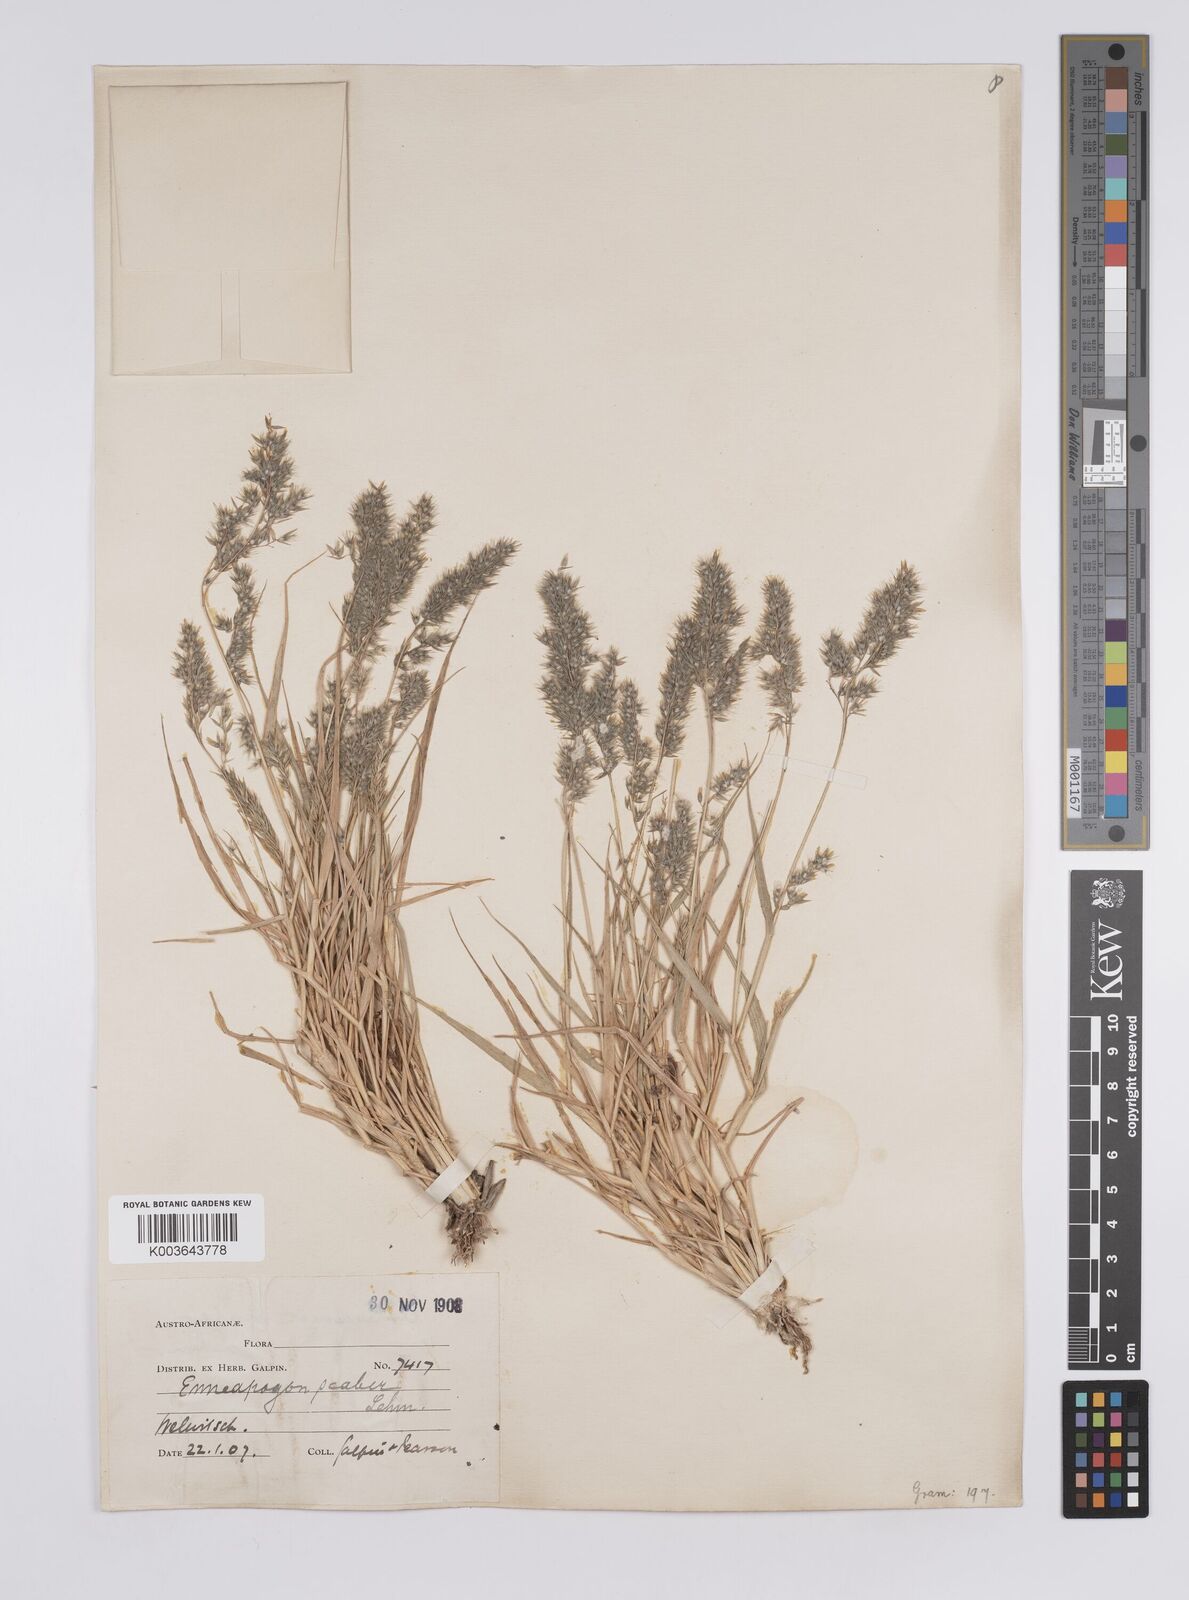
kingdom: Plantae
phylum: Tracheophyta
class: Liliopsida
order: Poales
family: Poaceae
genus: Enneapogon
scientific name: Enneapogon scaber
